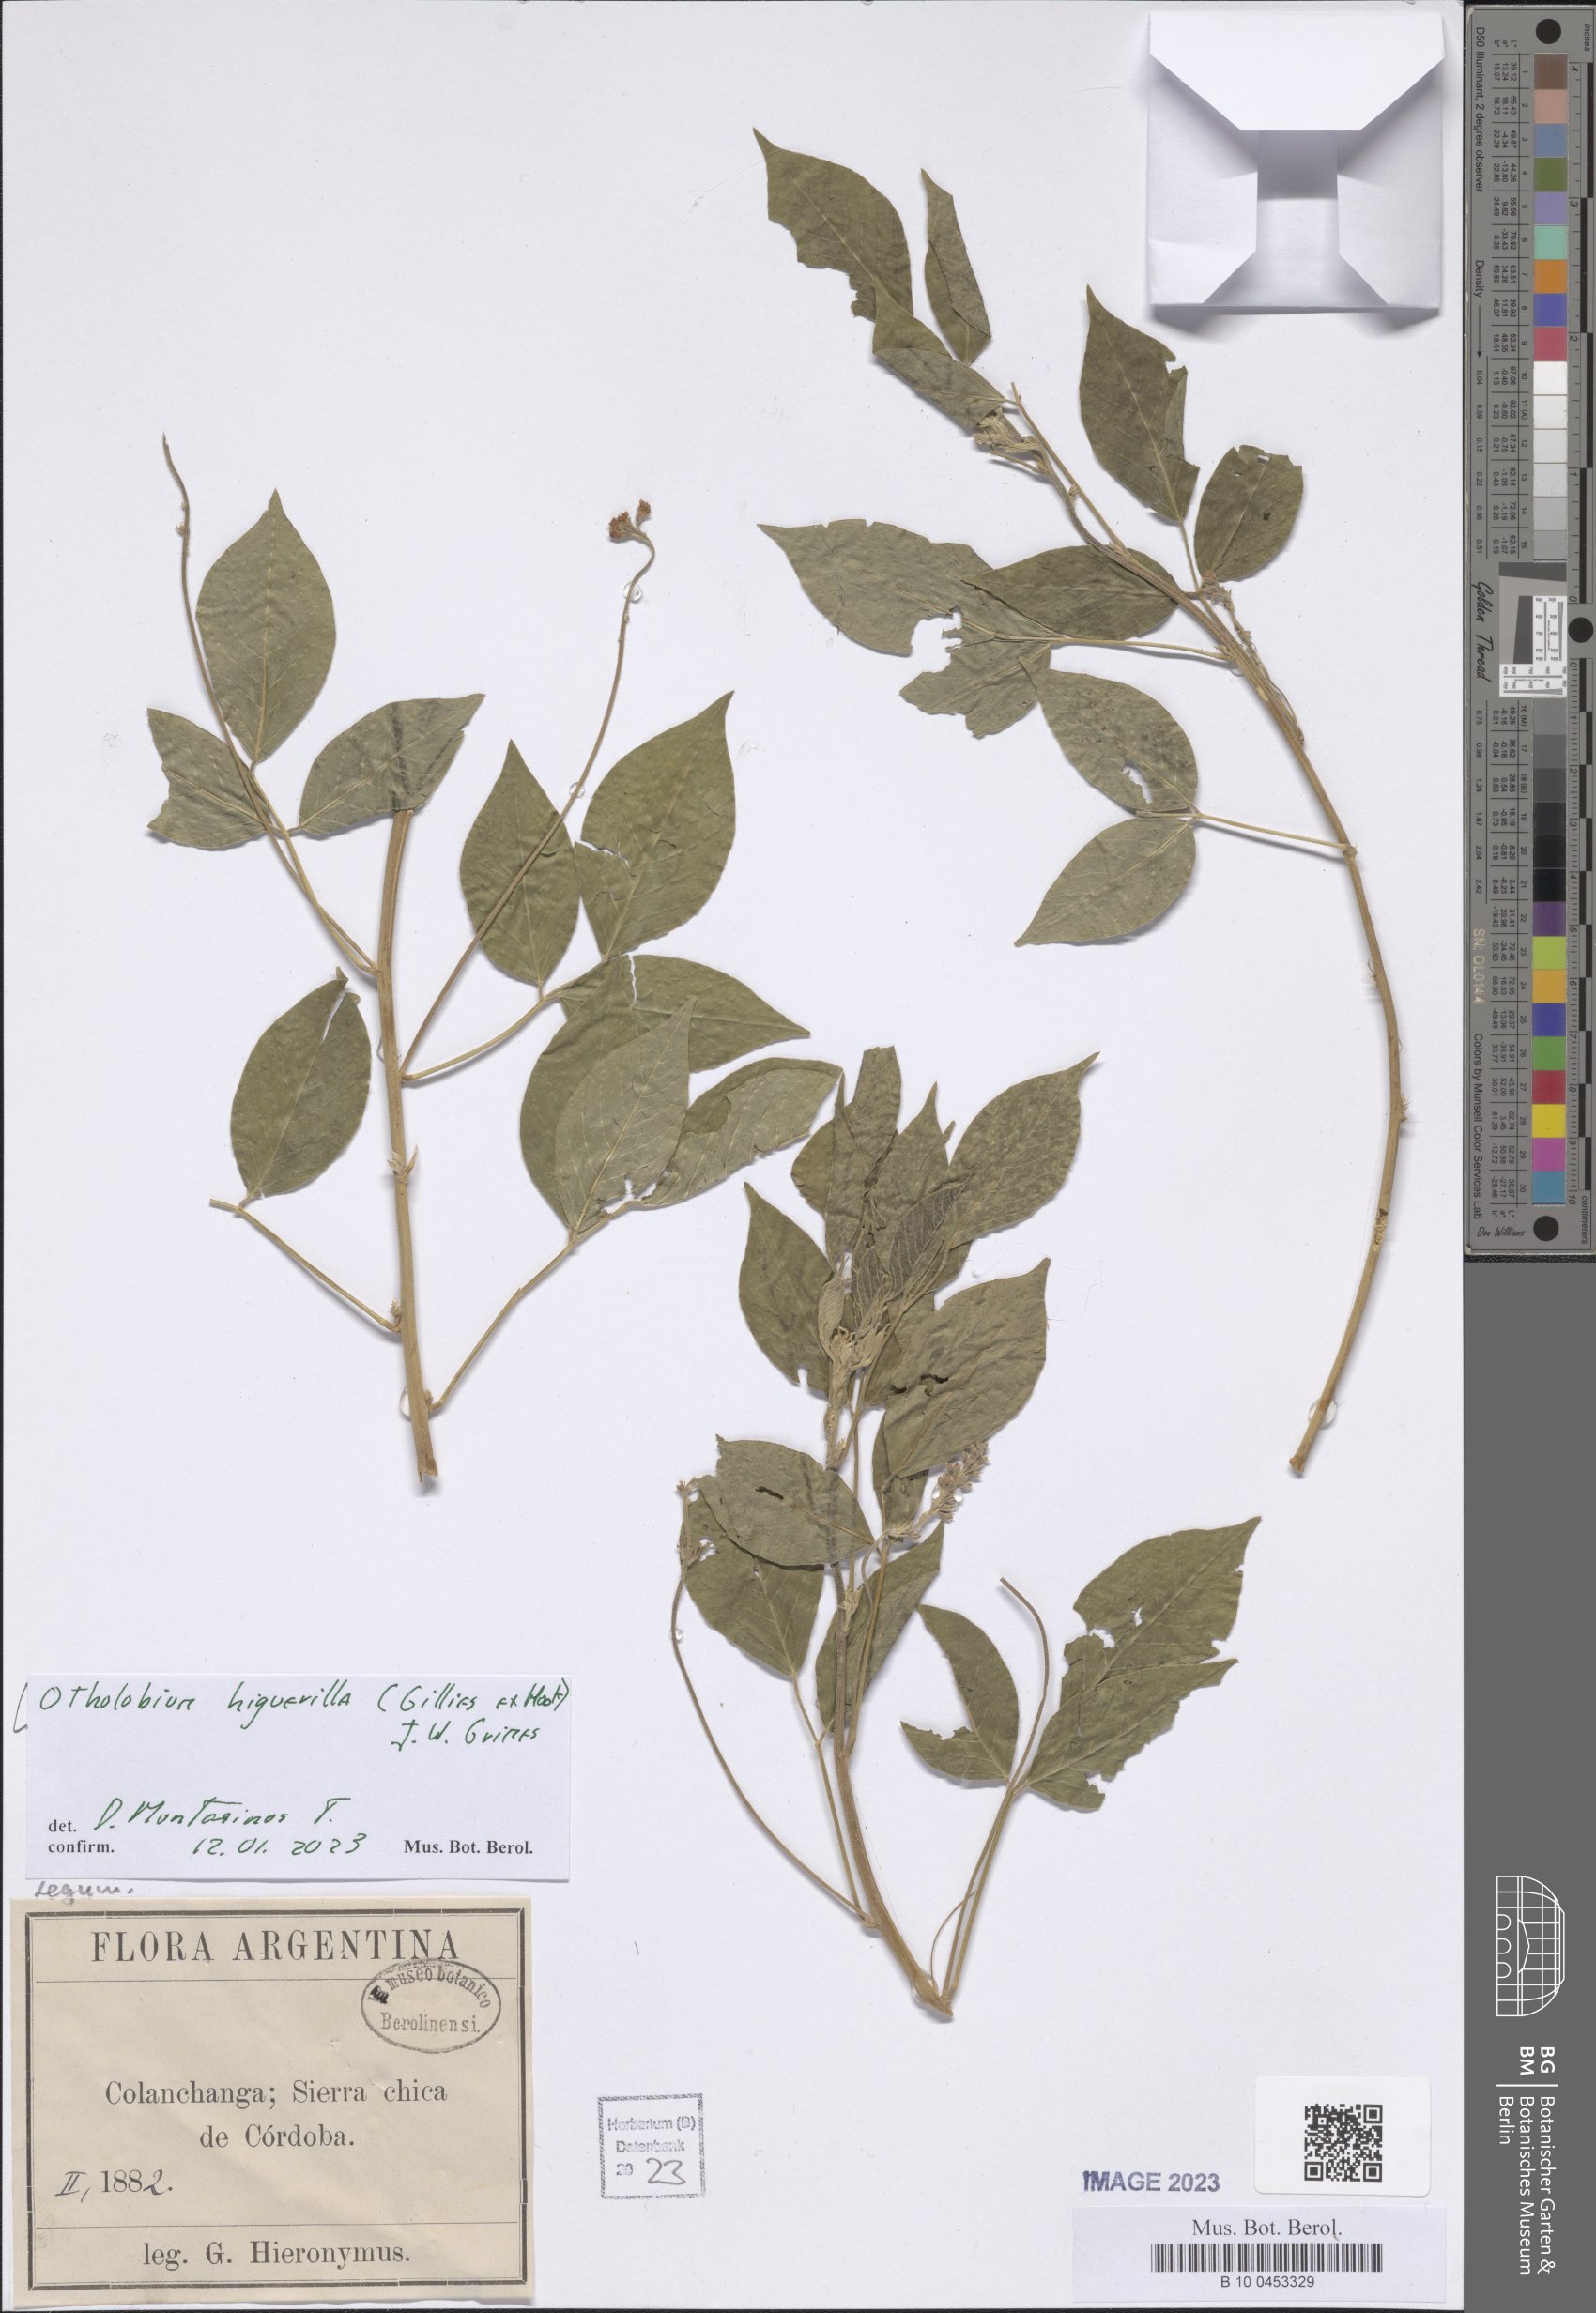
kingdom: Plantae
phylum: Tracheophyta
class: Magnoliopsida
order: Fabales
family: Fabaceae
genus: Psoralea
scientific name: Psoralea Otholobium higuerilla
